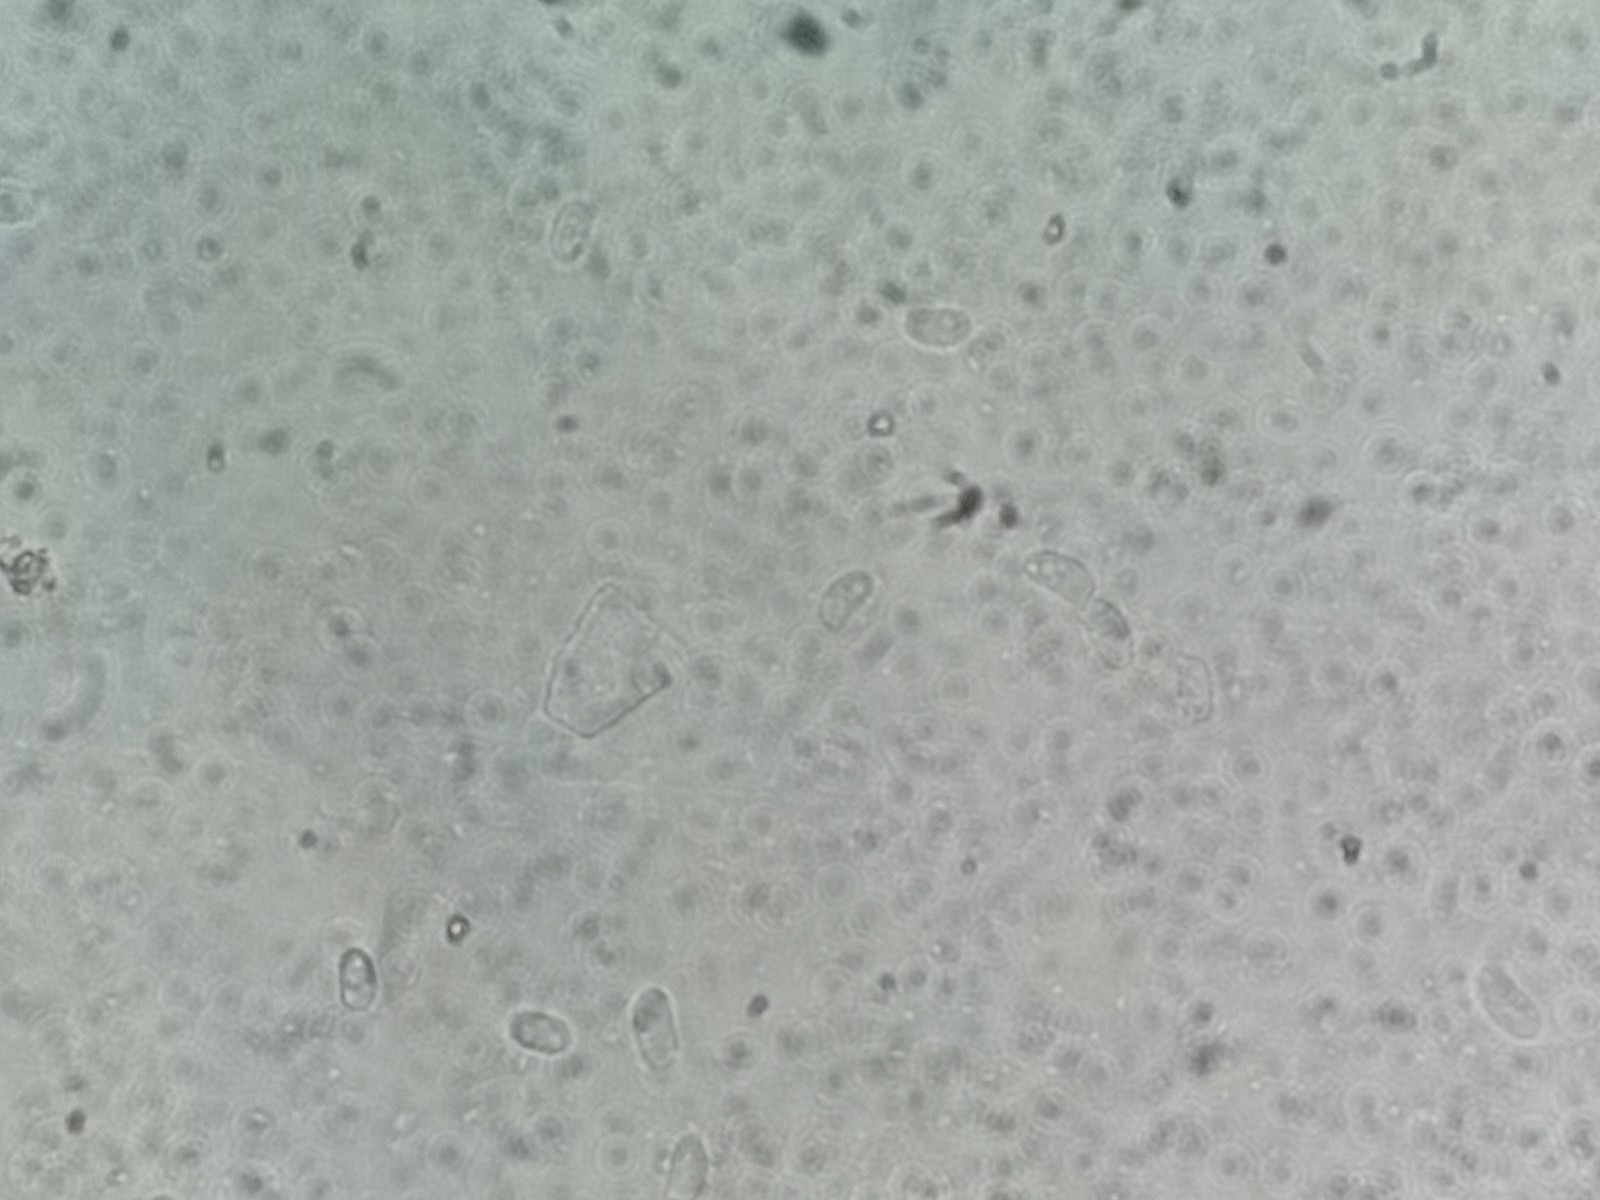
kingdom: Fungi
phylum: Basidiomycota
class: Agaricomycetes
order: Polyporales
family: Meruliaceae
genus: Phlebia
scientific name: Phlebia rufa
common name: ege-åresvamp
